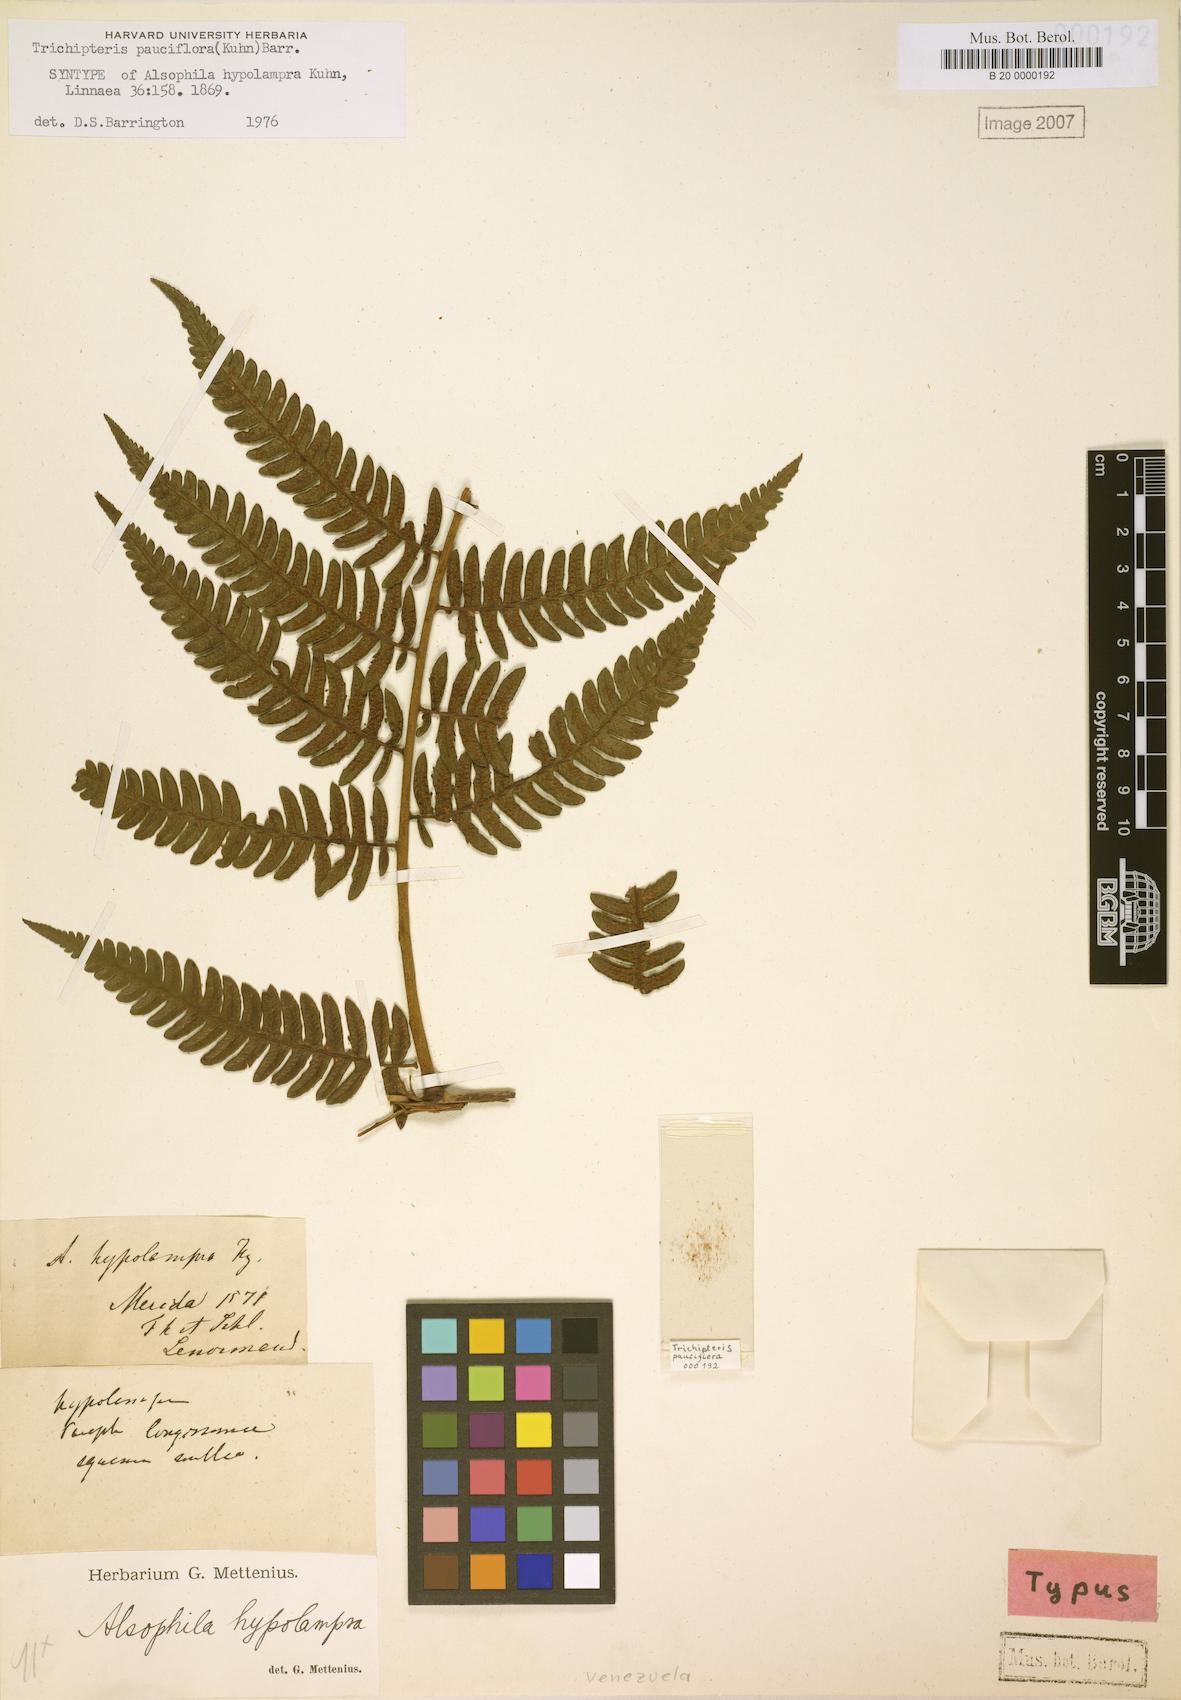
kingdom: Plantae
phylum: Tracheophyta
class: Polypodiopsida
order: Cyatheales
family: Cyatheaceae
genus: Cyathea
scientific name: Cyathea pauciflora
